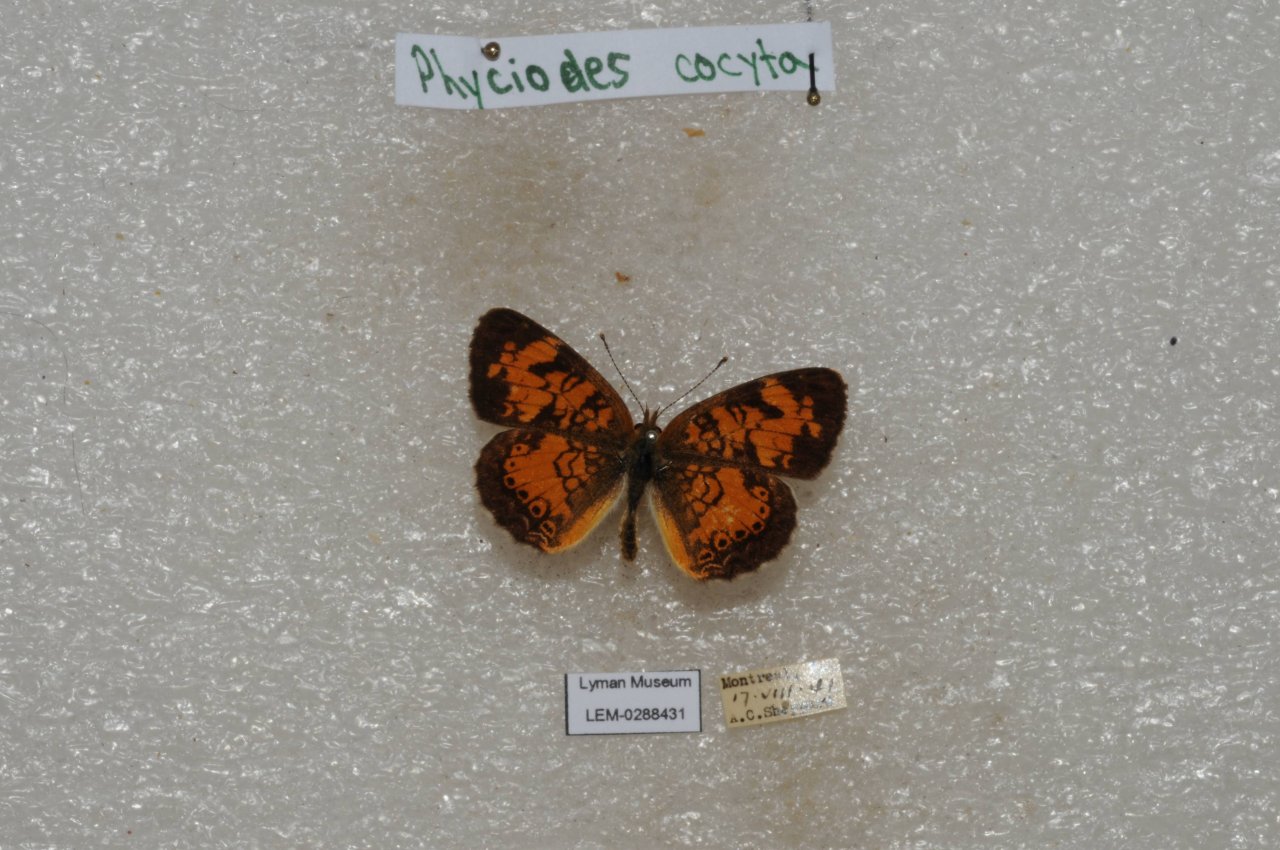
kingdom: Animalia
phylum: Arthropoda
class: Insecta
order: Lepidoptera
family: Nymphalidae
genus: Phyciodes
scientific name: Phyciodes tharos
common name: Northern Crescent
